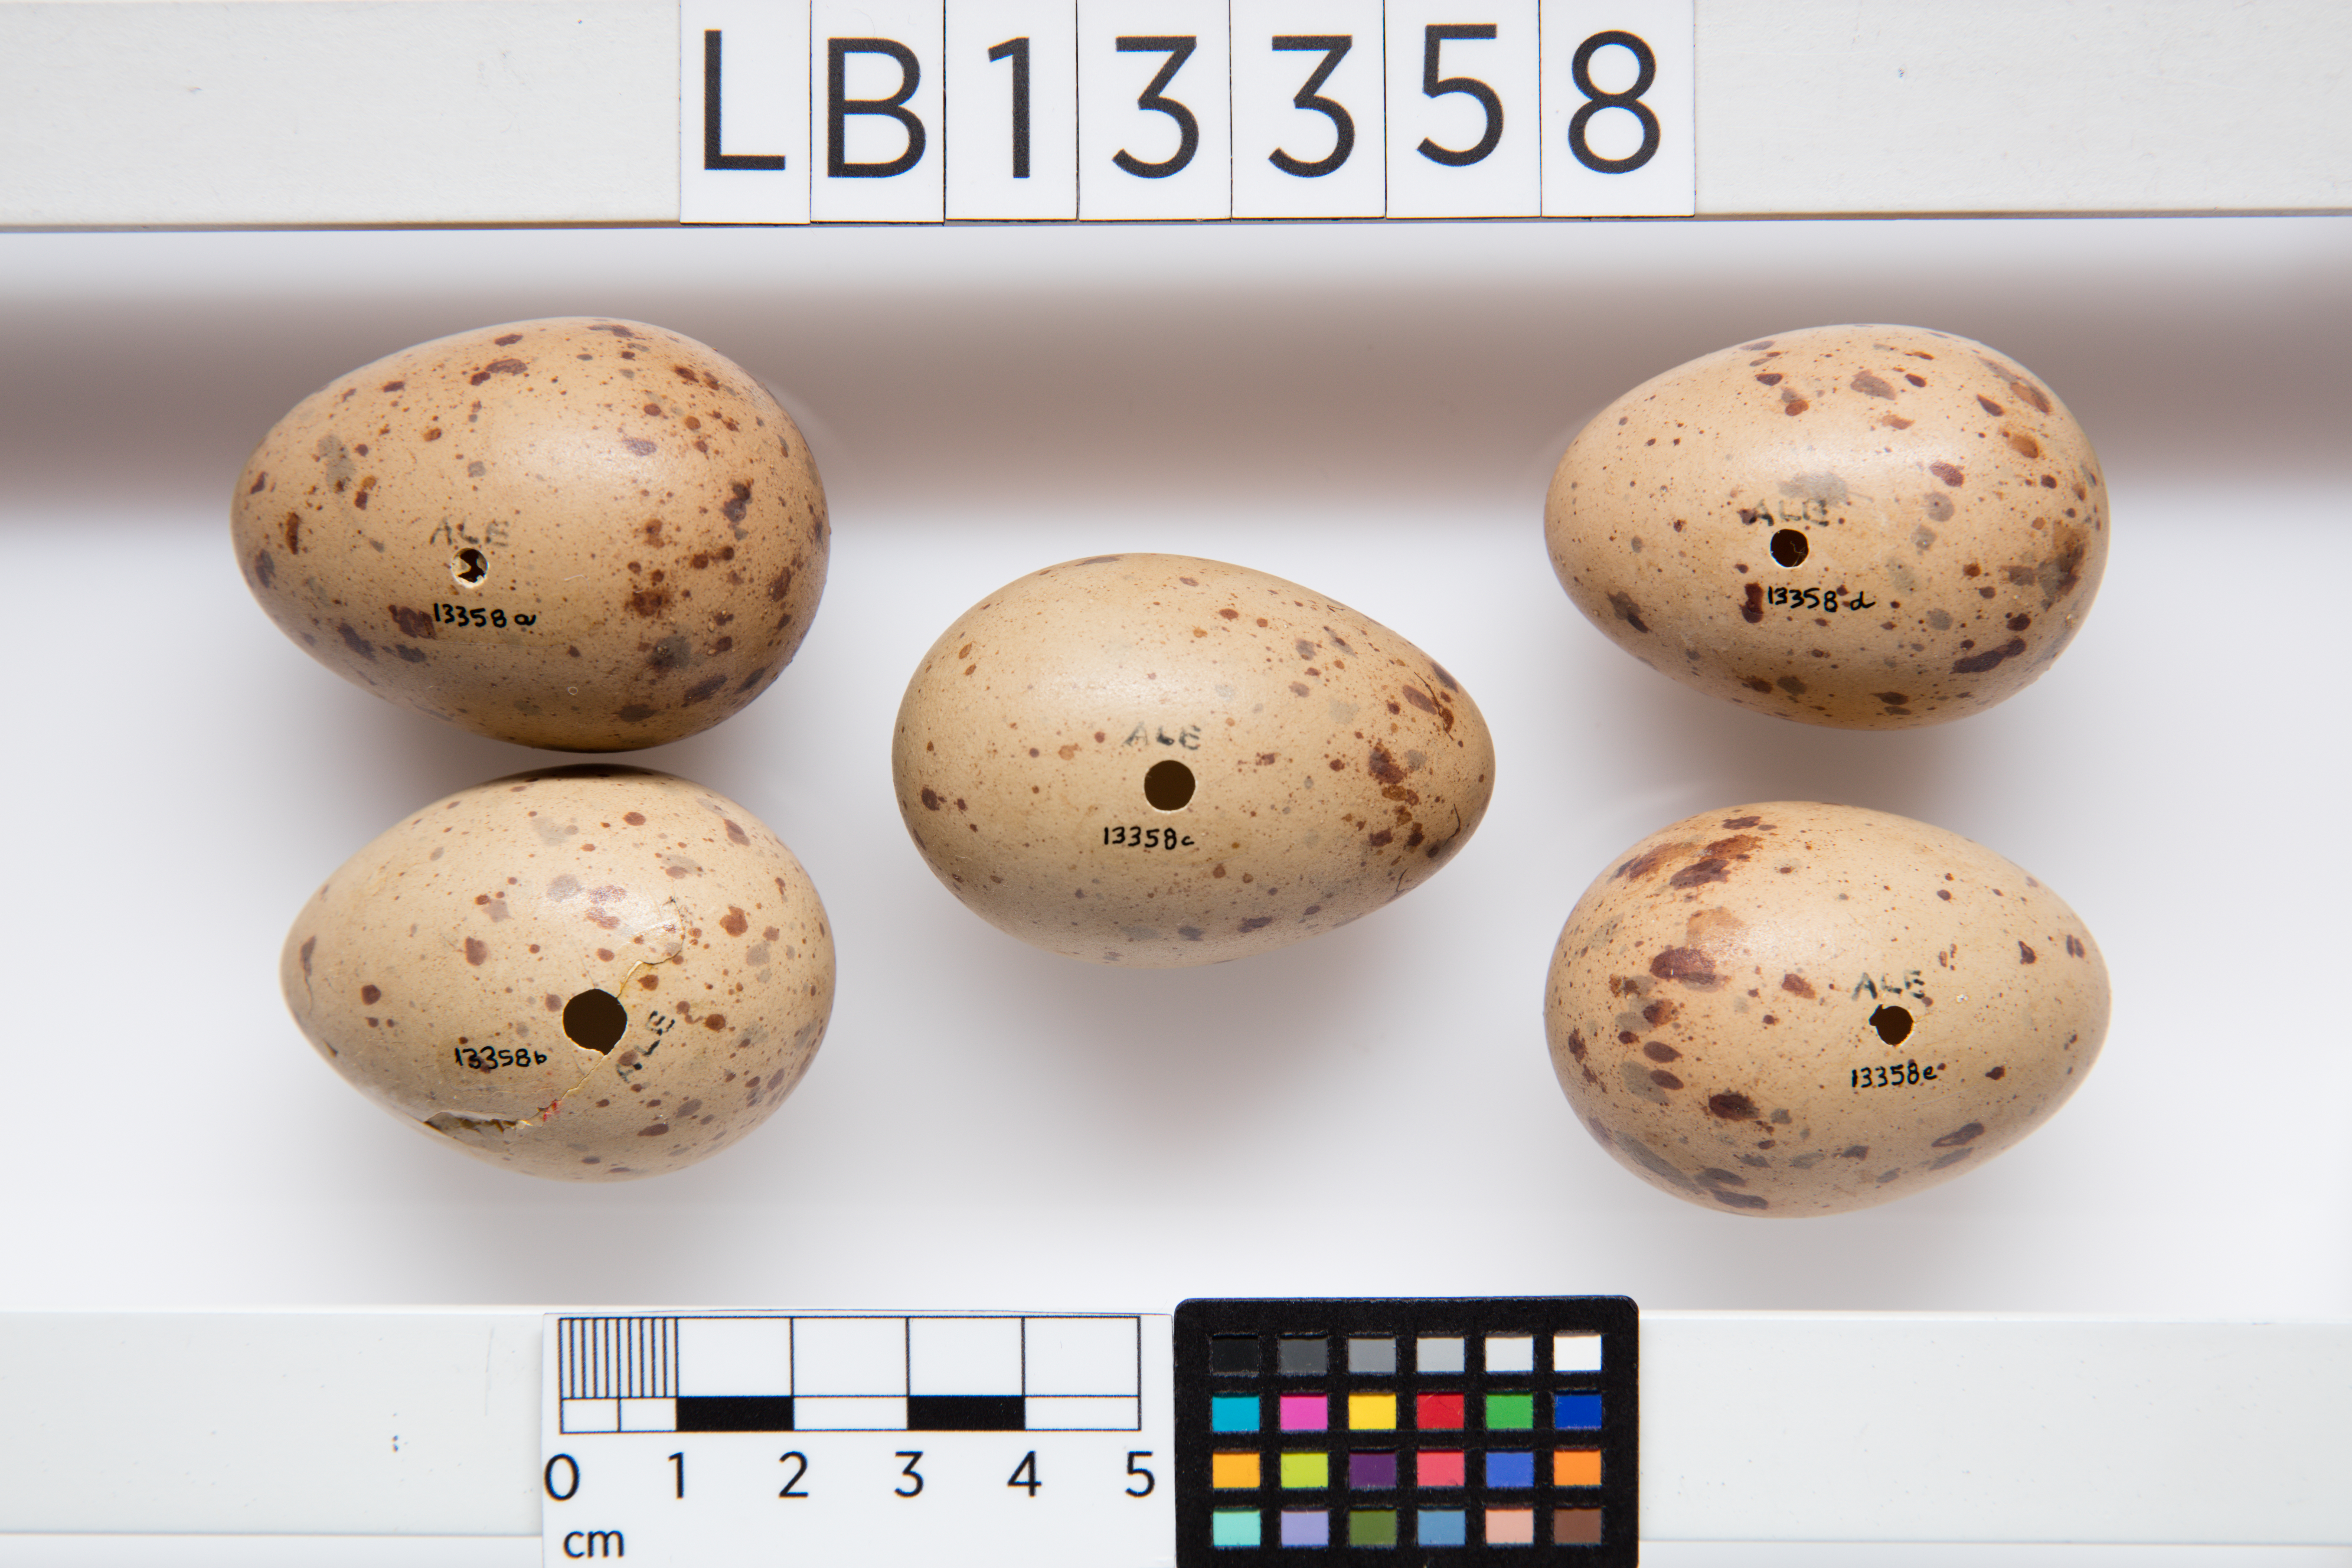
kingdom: Animalia
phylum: Chordata
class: Aves
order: Gruiformes
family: Rallidae
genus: Porphyrio
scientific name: Porphyrio melanotus
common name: Australasian swamphen
